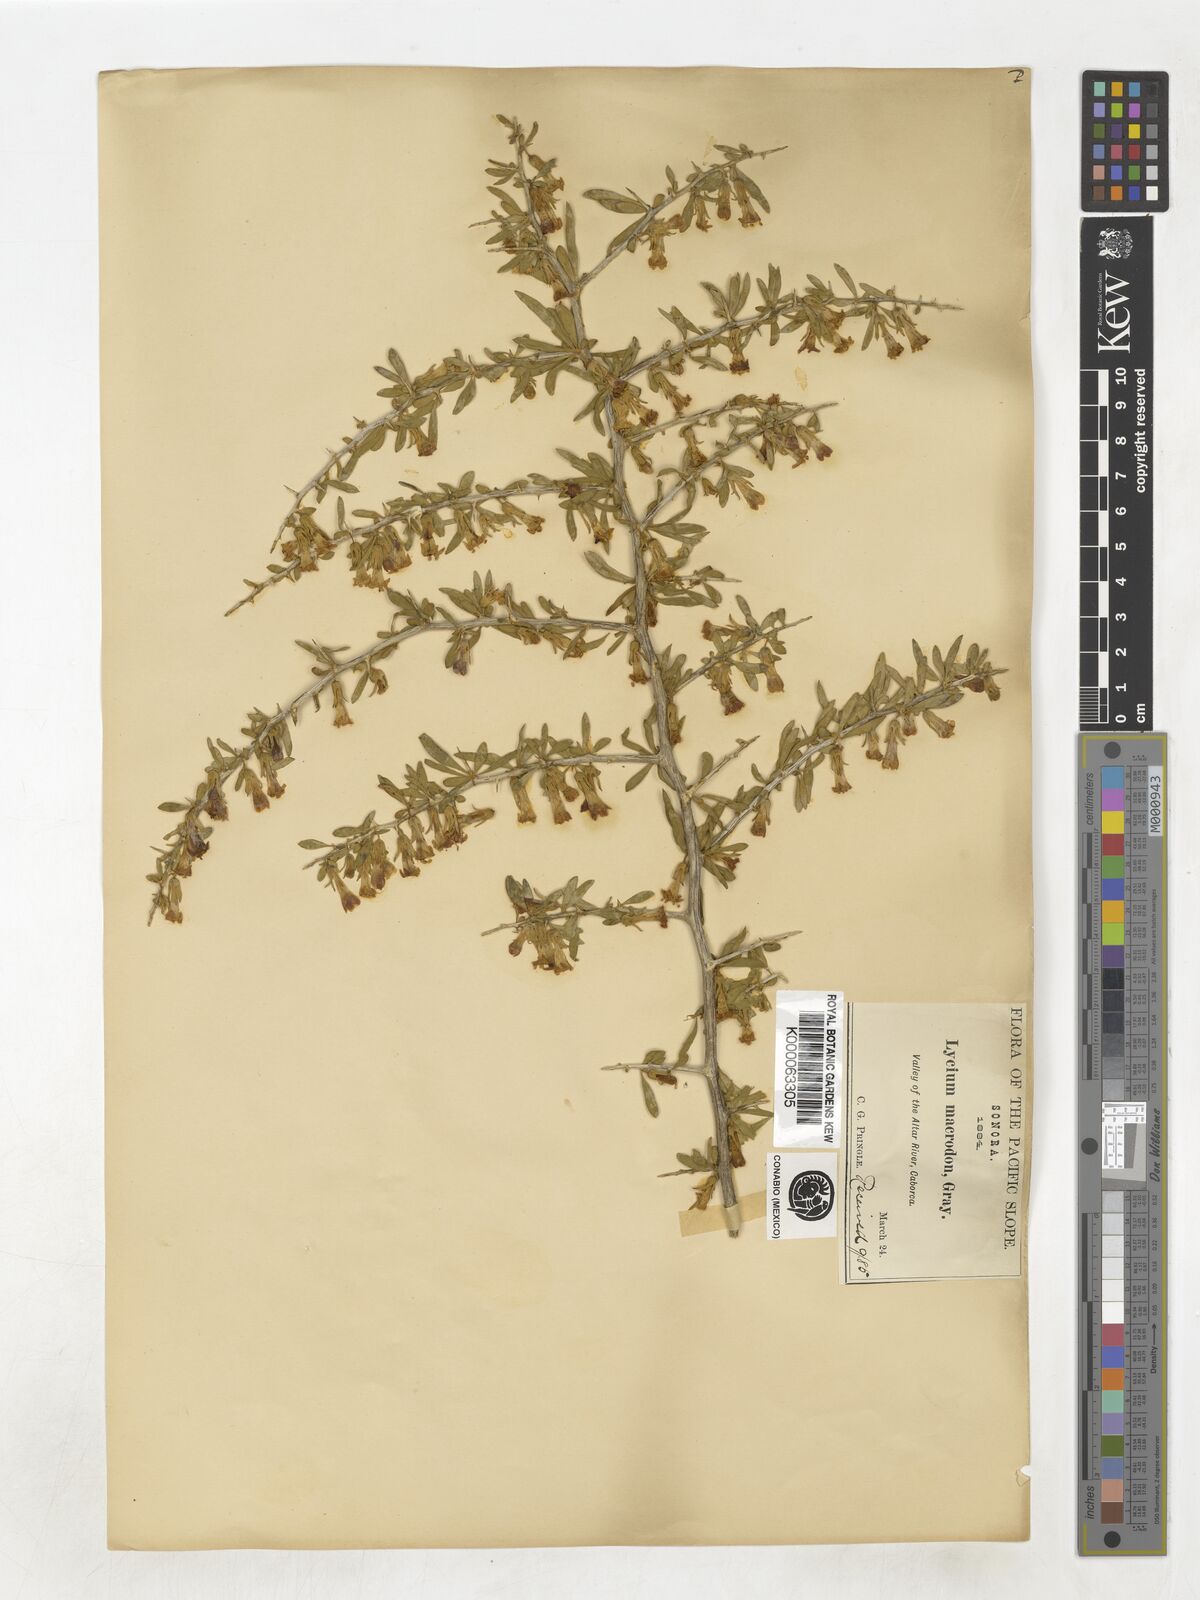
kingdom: Plantae
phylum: Tracheophyta
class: Magnoliopsida
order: Solanales
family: Solanaceae
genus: Lycium
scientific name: Lycium macrodon
